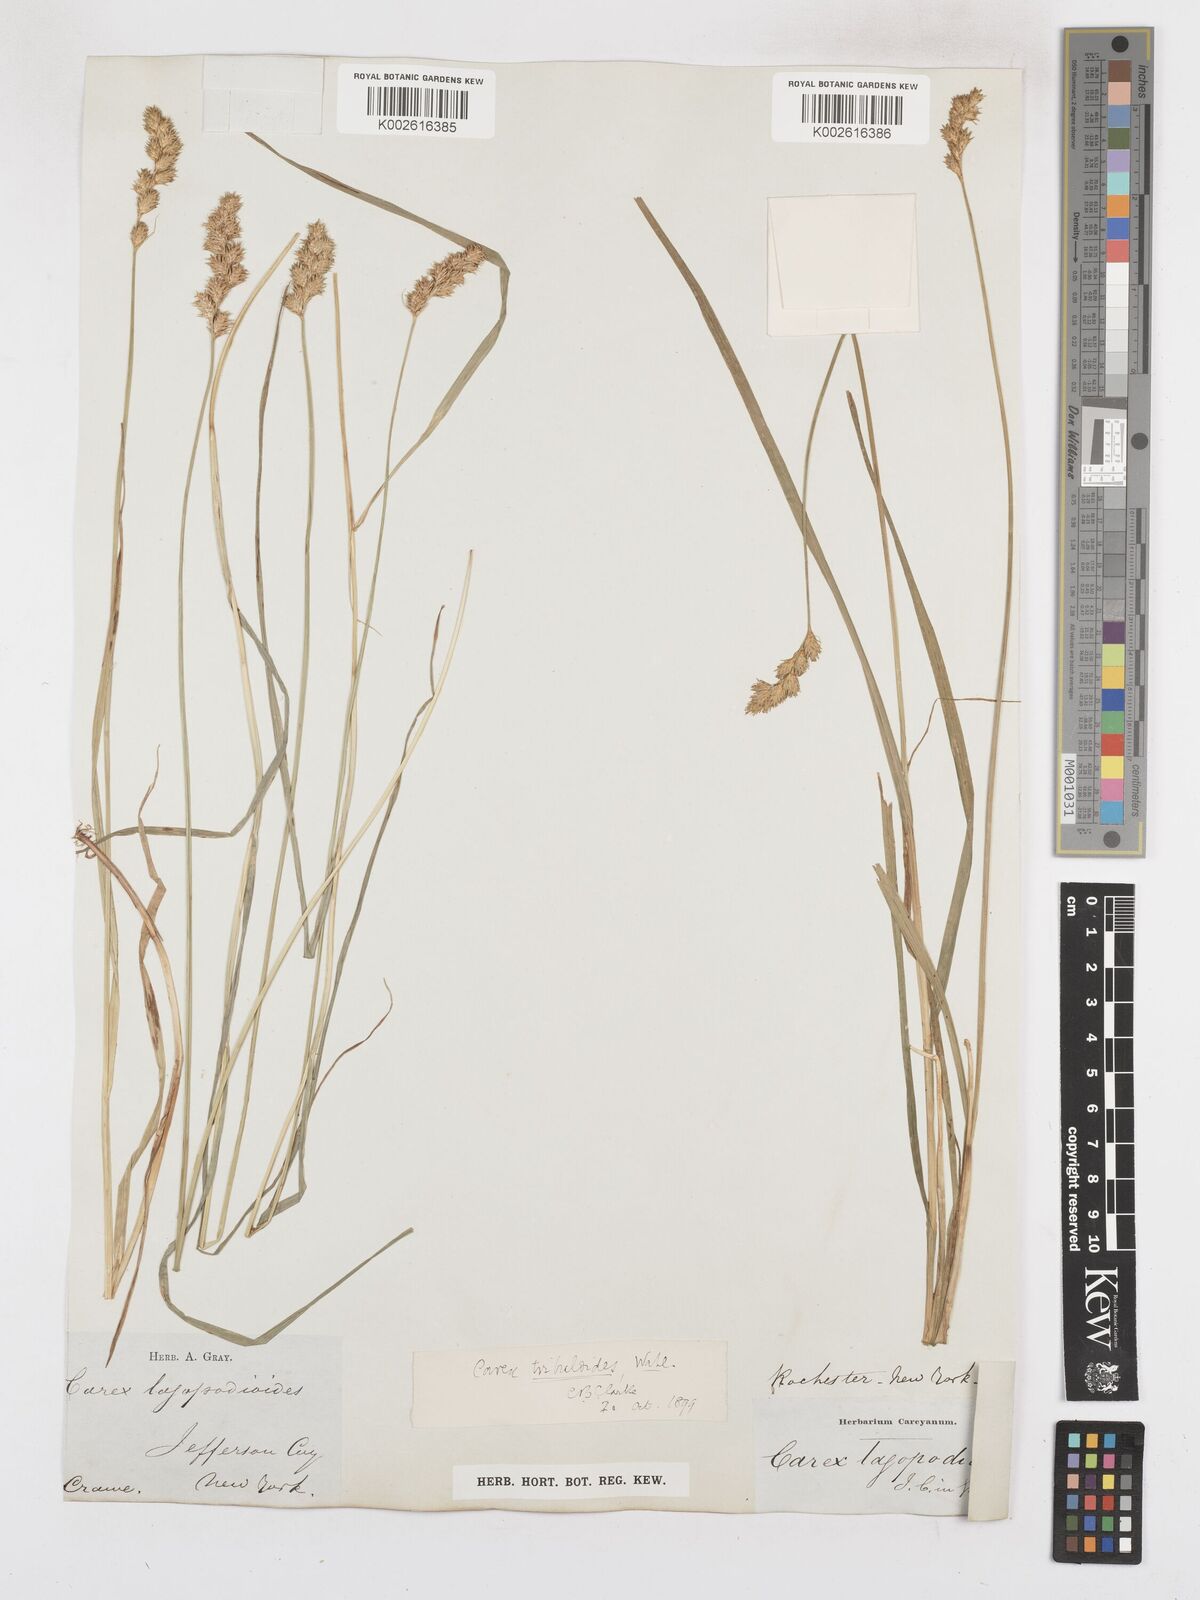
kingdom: Plantae
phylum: Tracheophyta
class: Liliopsida
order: Poales
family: Cyperaceae
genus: Carex
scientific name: Carex tribuloides
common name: Blunt broom sedge
